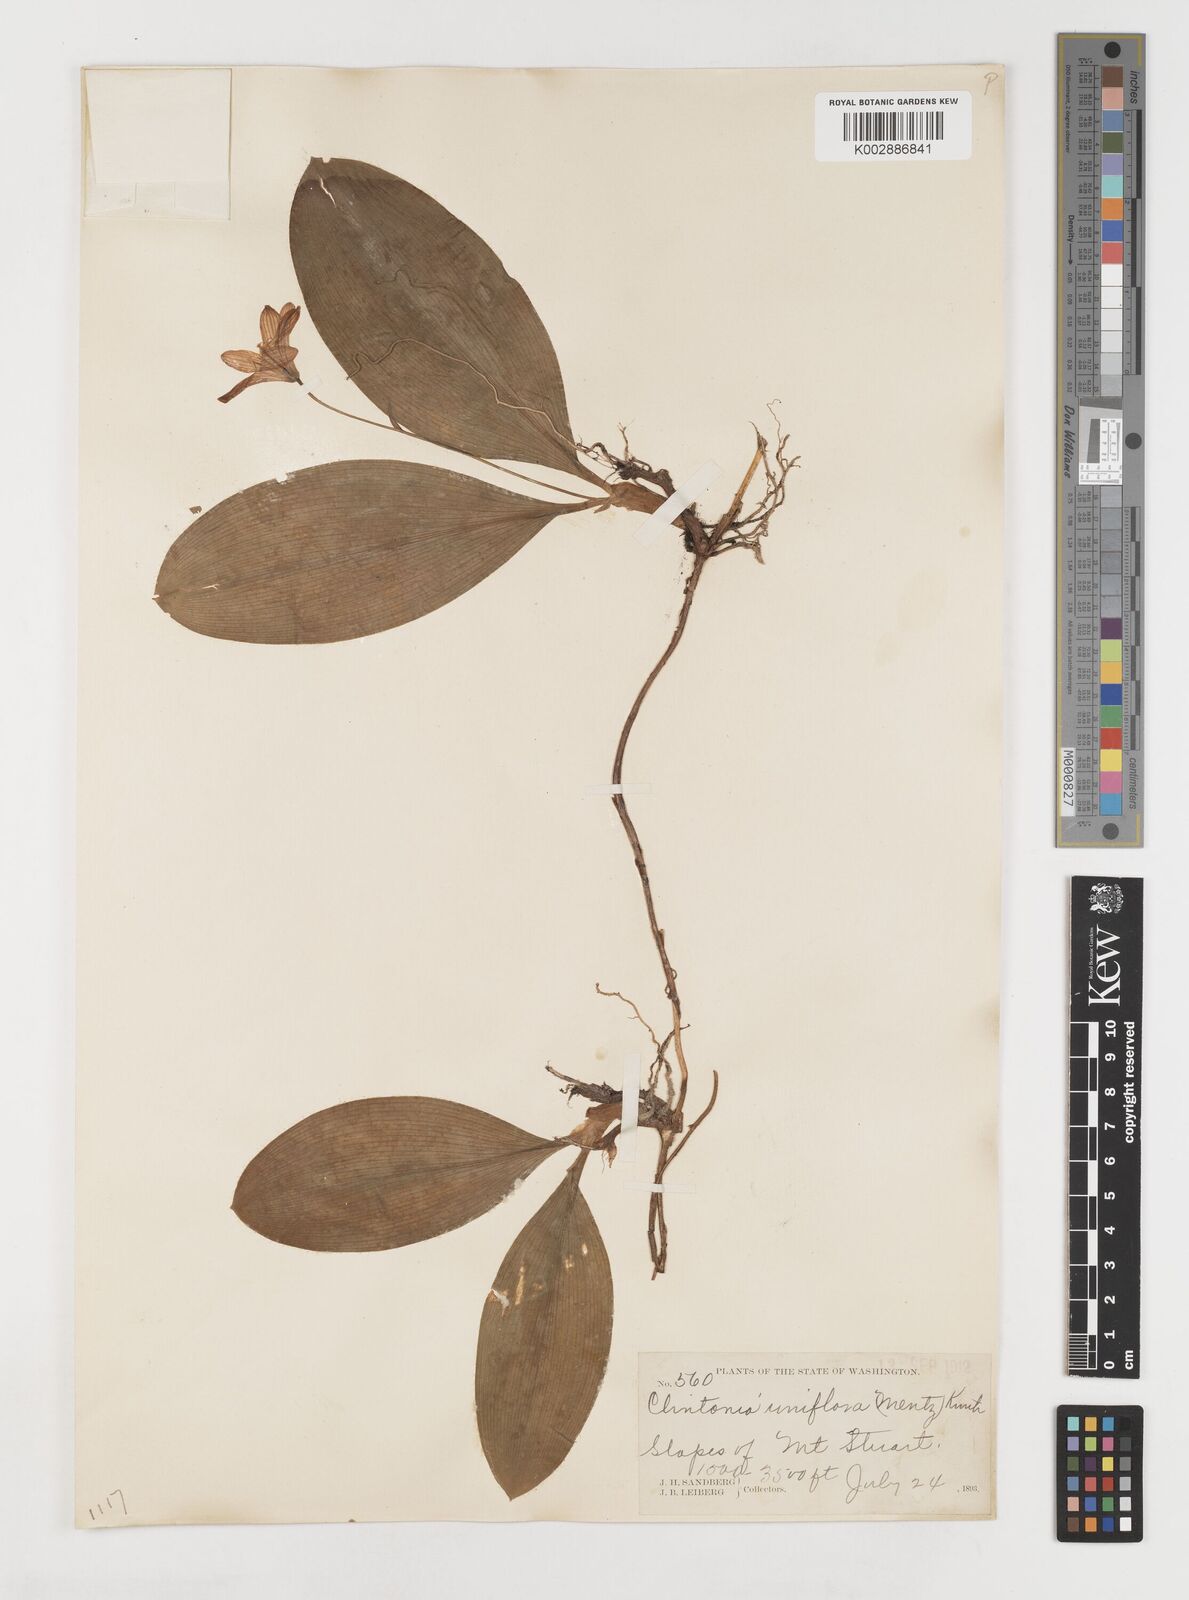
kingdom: Plantae
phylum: Tracheophyta
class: Liliopsida
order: Liliales
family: Liliaceae
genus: Clintonia
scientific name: Clintonia uniflora
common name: Queen's cup
